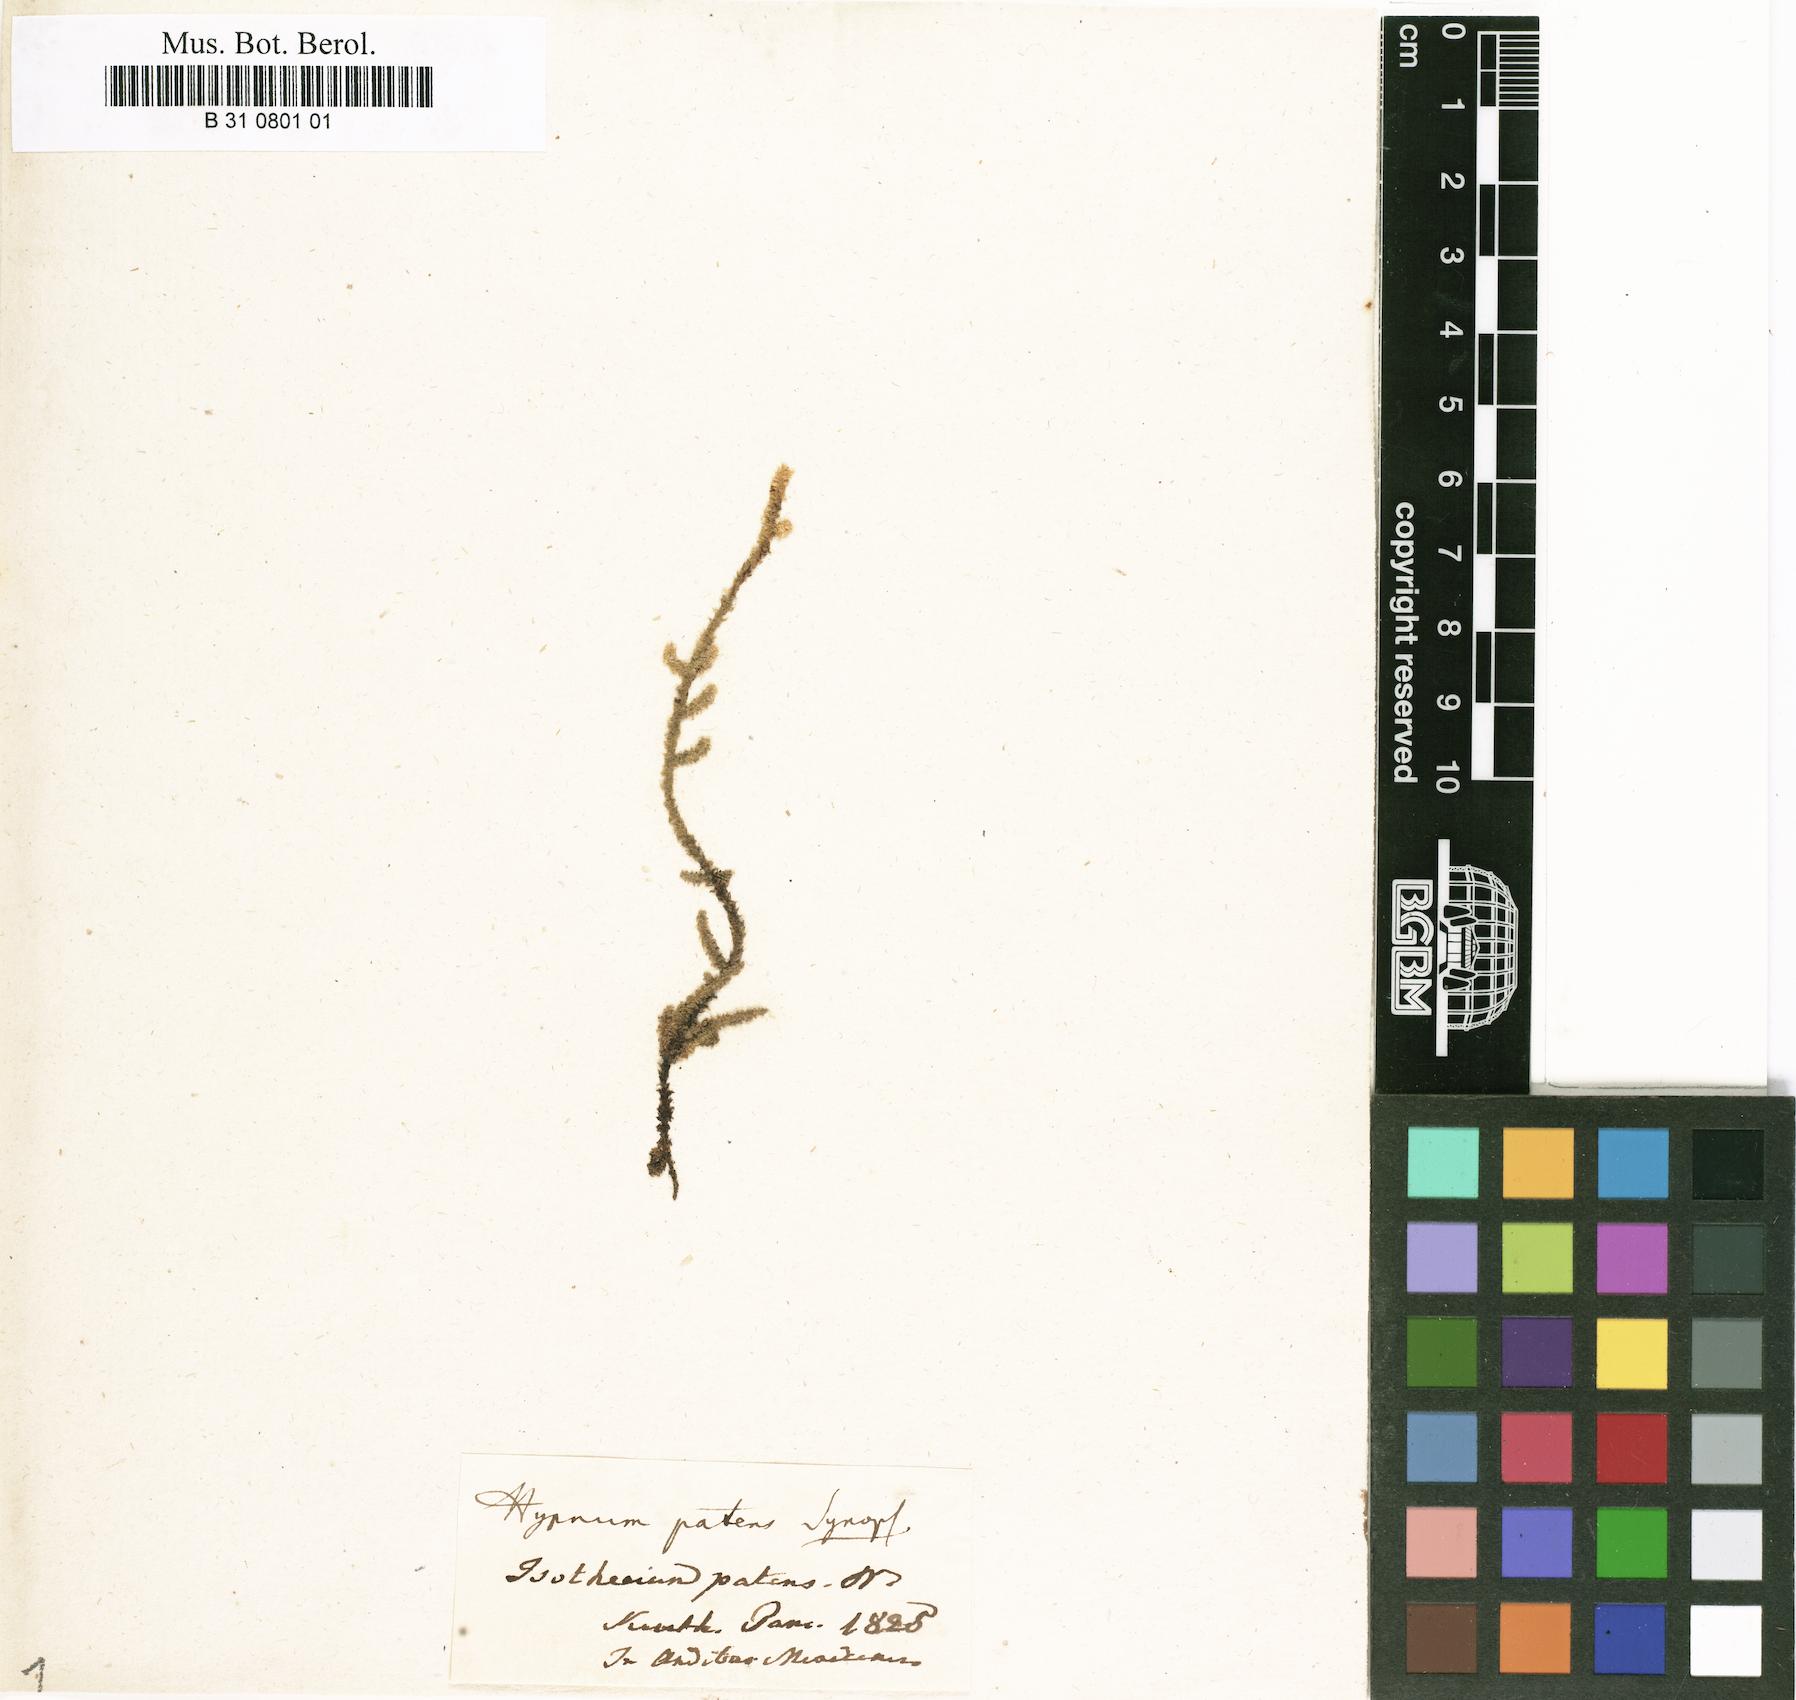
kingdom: Plantae
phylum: Bryophyta
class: Bryopsida
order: Hypnales
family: Brachytheciaceae
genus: Zelometeorium
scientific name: Zelometeorium patens
